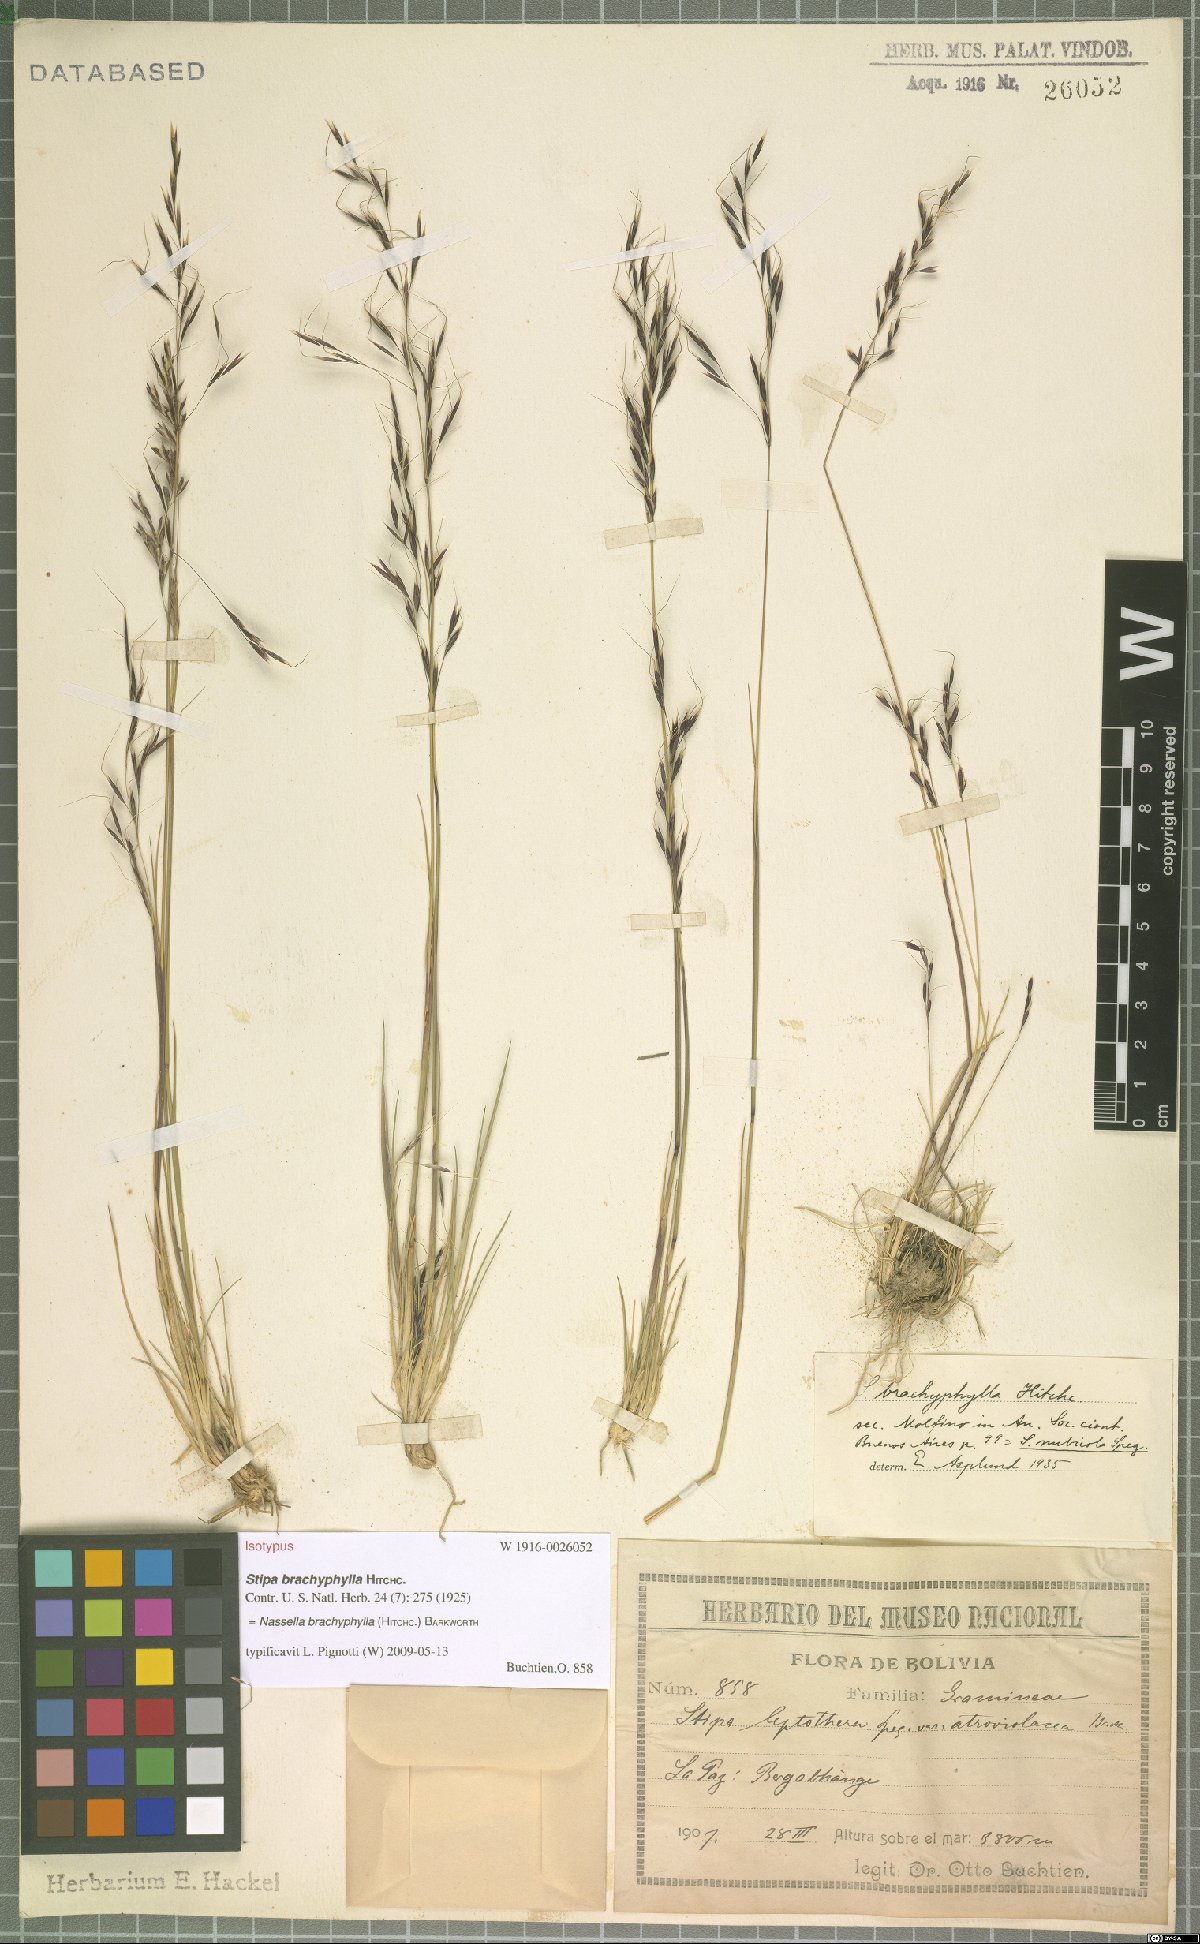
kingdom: Plantae
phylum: Tracheophyta
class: Liliopsida
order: Poales
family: Poaceae
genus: Nassella
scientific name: Nassella brachyphylla
